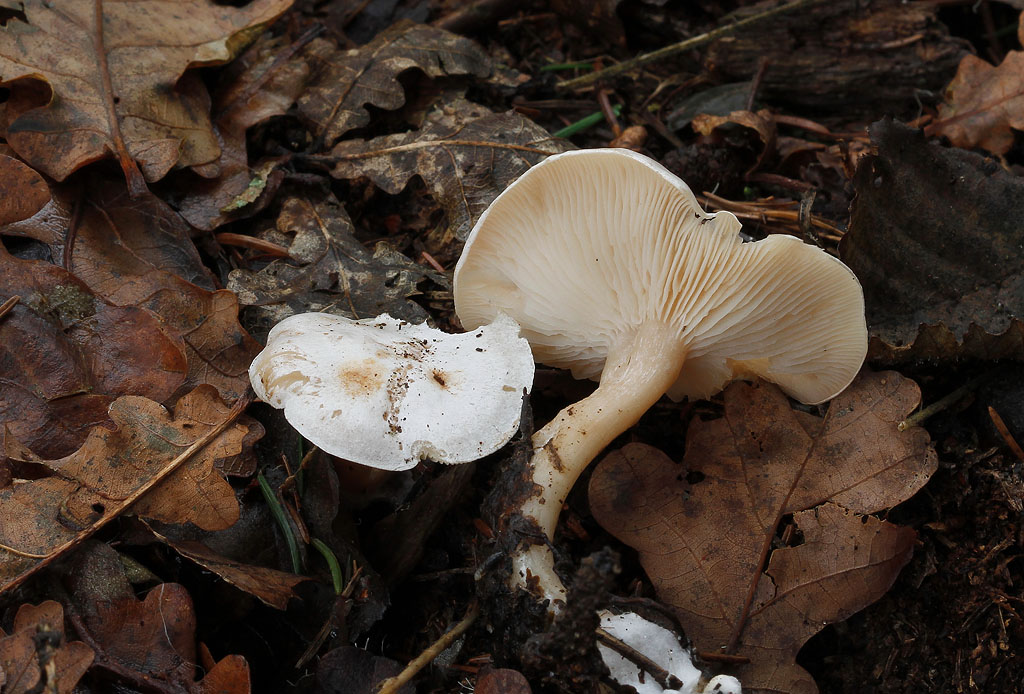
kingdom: Fungi
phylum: Basidiomycota
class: Agaricomycetes
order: Agaricales
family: Tricholomataceae
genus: Clitocybe
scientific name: Clitocybe phyllophila
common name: løv-tragthat
